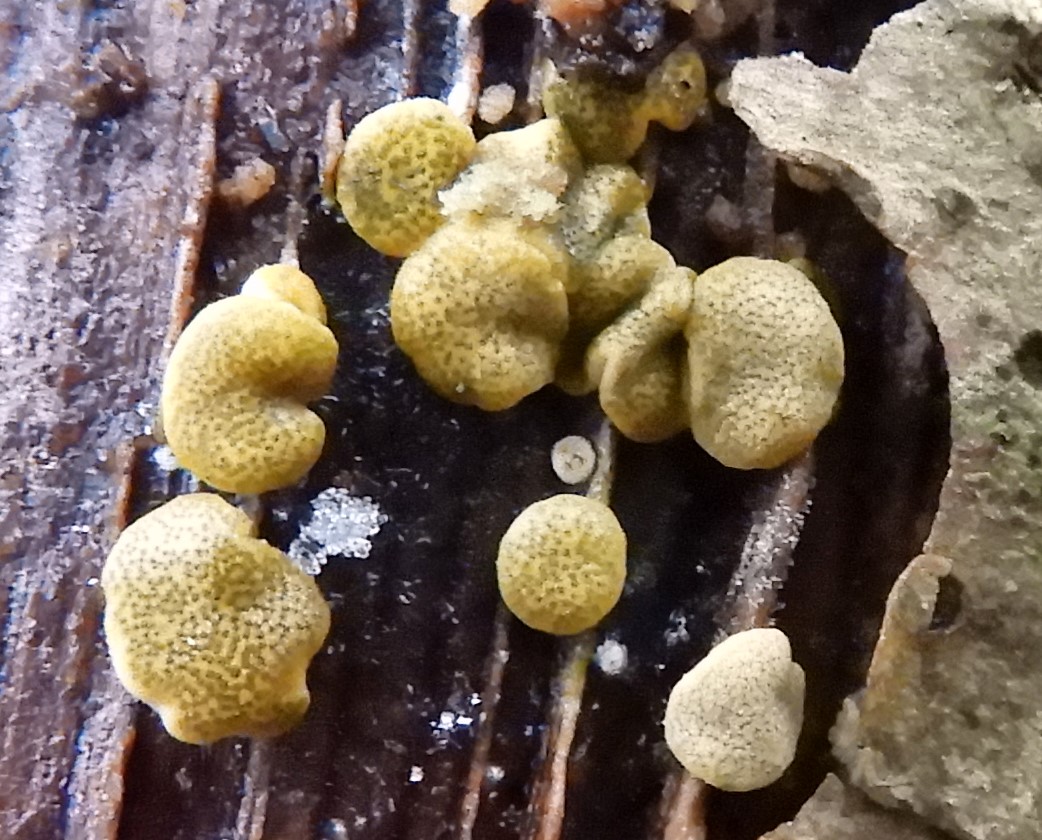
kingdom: Fungi
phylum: Ascomycota
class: Sordariomycetes
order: Hypocreales
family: Hypocreaceae
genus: Trichoderma
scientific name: Trichoderma aureoviride
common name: æggegul kødkerne
